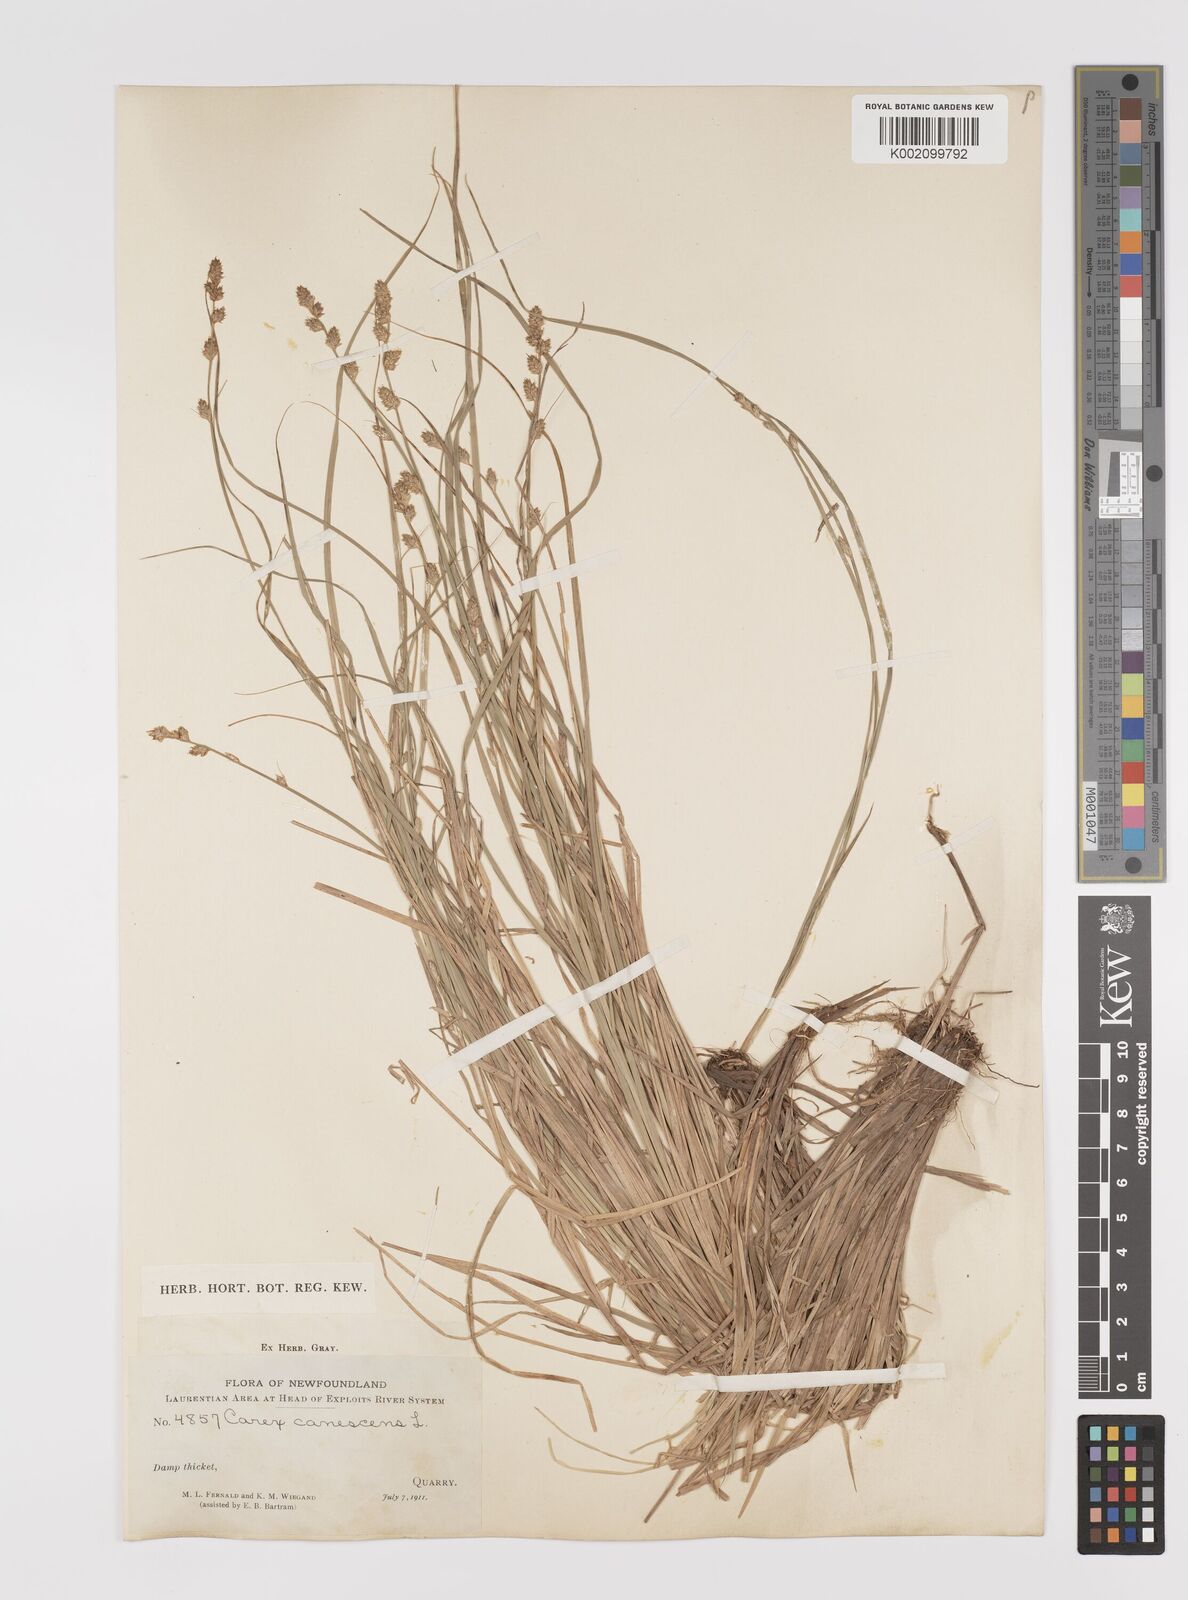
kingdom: Plantae
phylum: Tracheophyta
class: Liliopsida
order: Poales
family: Cyperaceae
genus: Carex
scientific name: Carex curta
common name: White sedge
